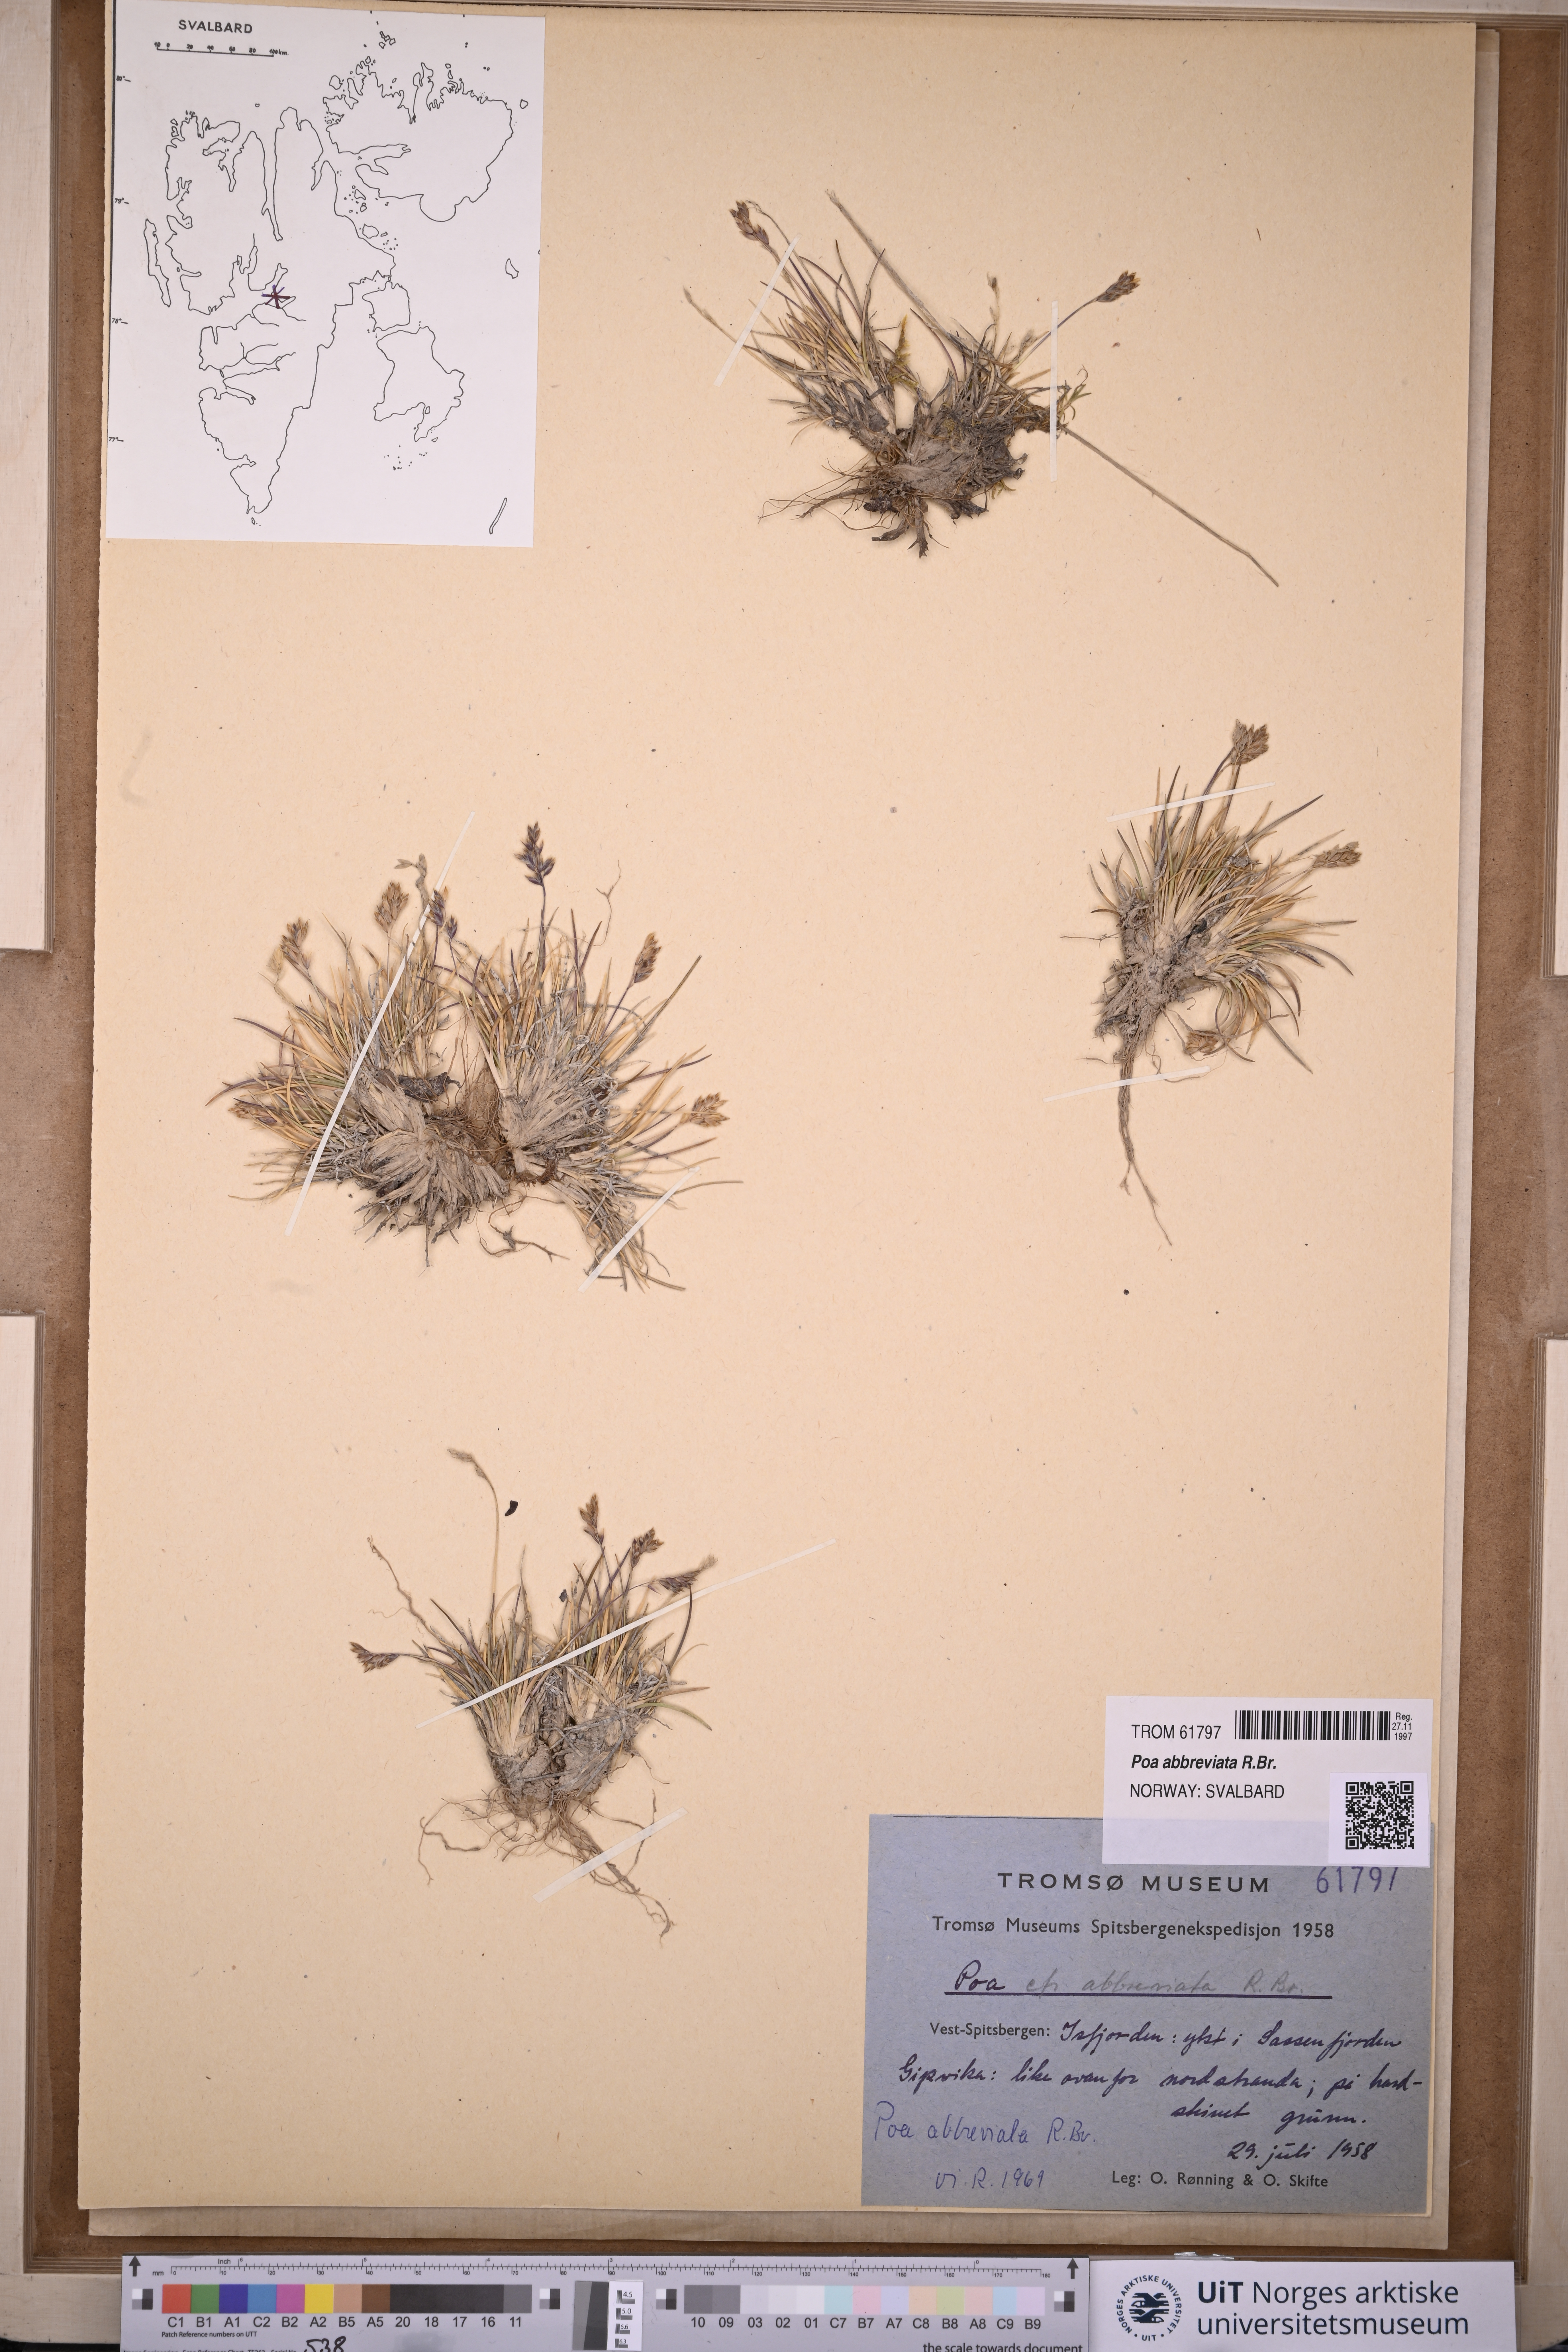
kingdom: Plantae
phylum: Tracheophyta
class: Liliopsida
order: Poales
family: Poaceae
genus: Poa
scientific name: Poa abbreviata
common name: Abbreviated bluegrass
